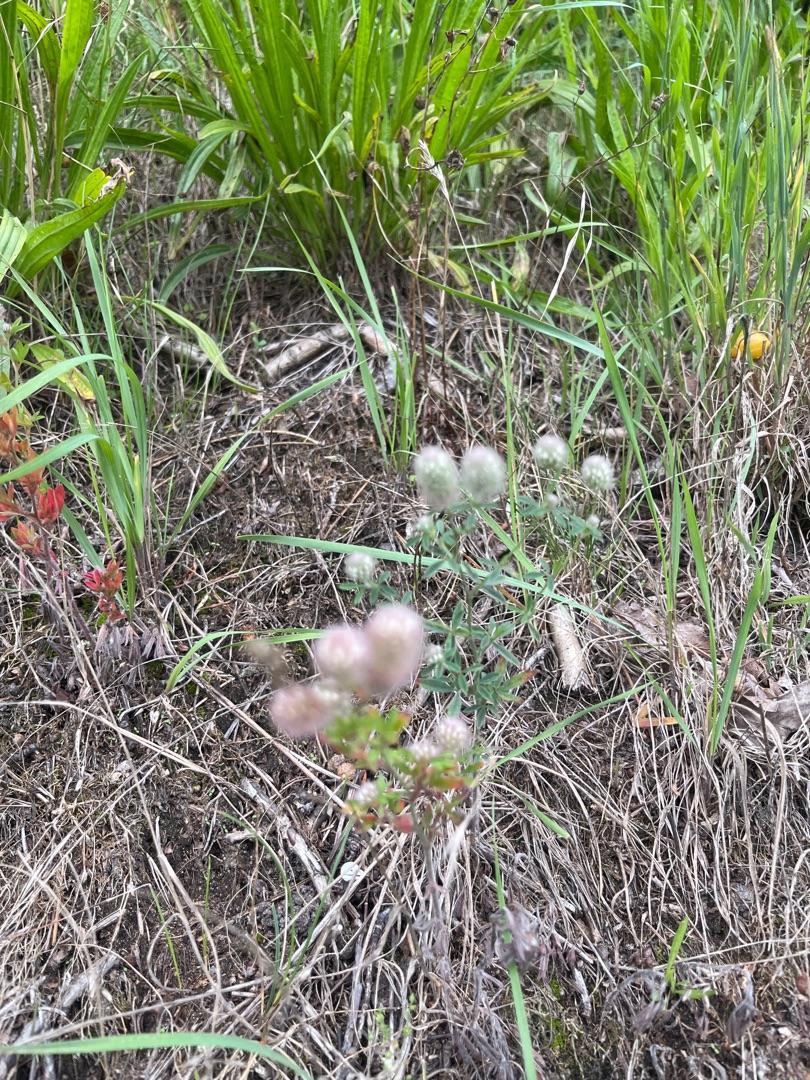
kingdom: Plantae
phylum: Tracheophyta
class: Magnoliopsida
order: Fabales
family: Fabaceae
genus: Trifolium
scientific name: Trifolium arvense
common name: Hare-kløver
